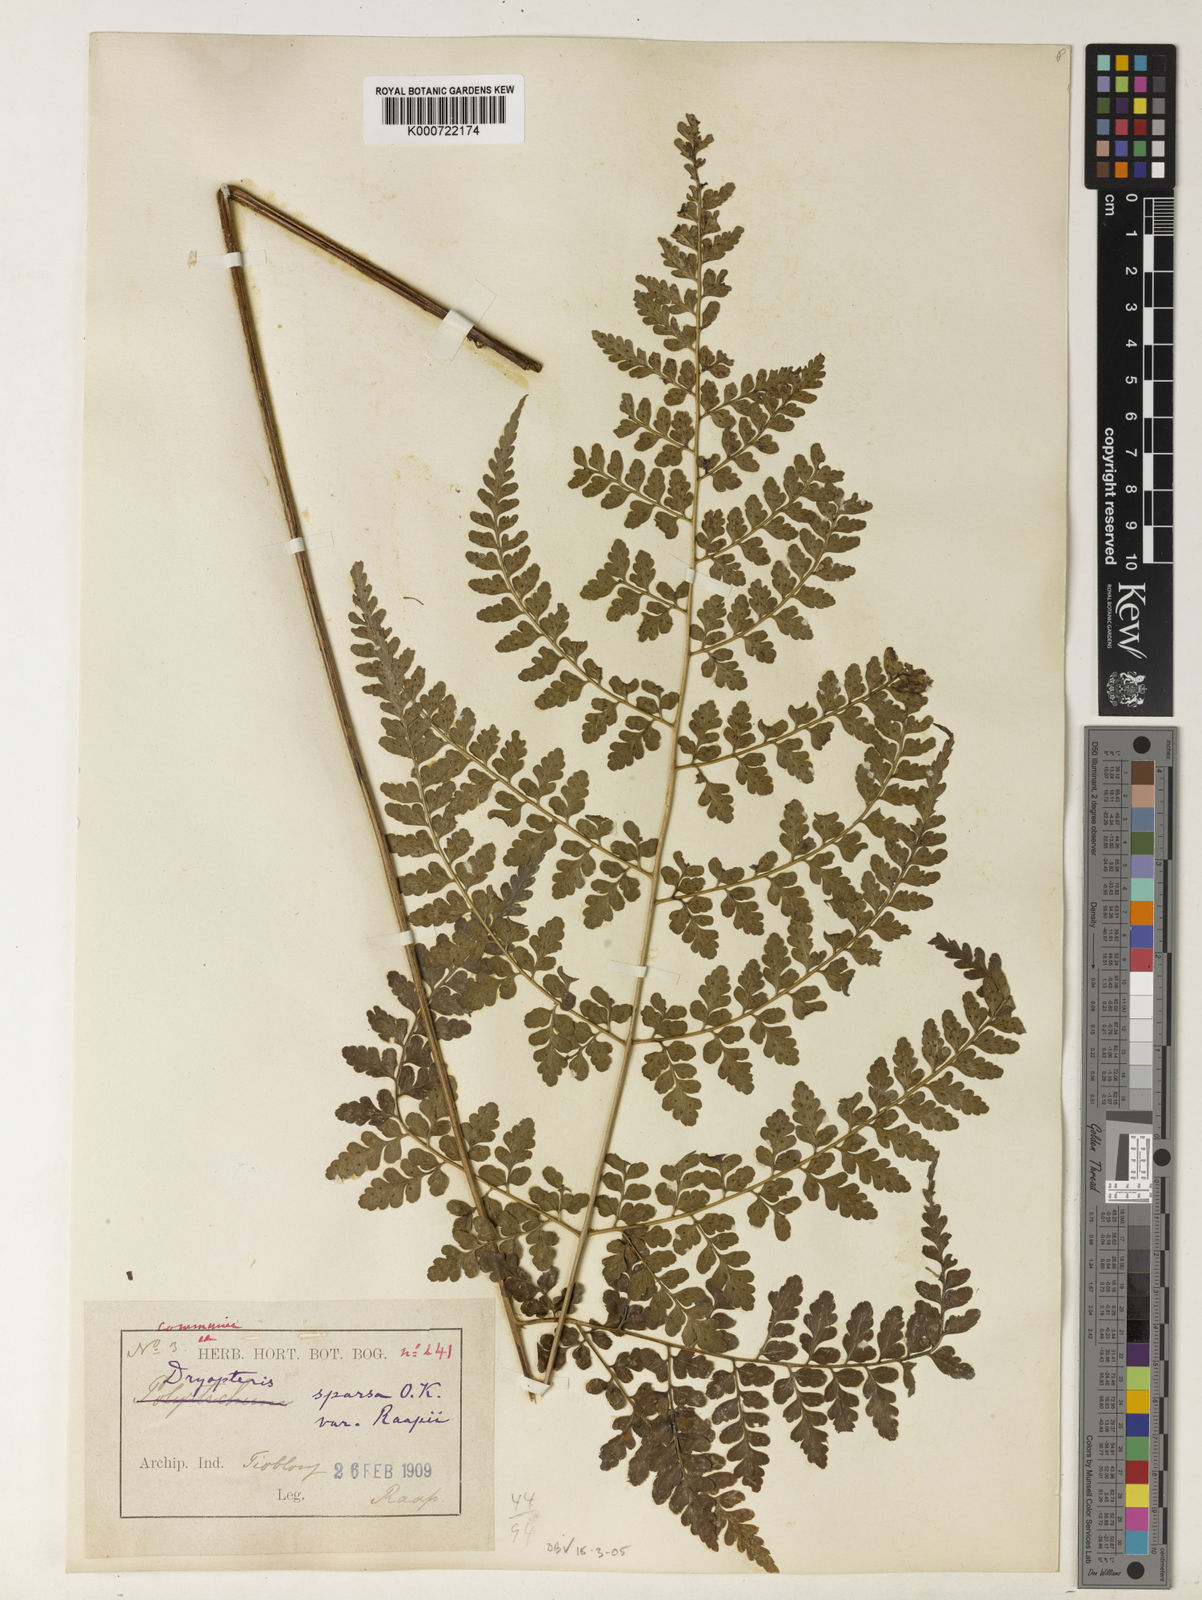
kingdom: Plantae
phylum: Tracheophyta
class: Polypodiopsida
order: Polypodiales
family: Dryopteridaceae
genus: Dryopteris
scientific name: Dryopteris hasseltii
